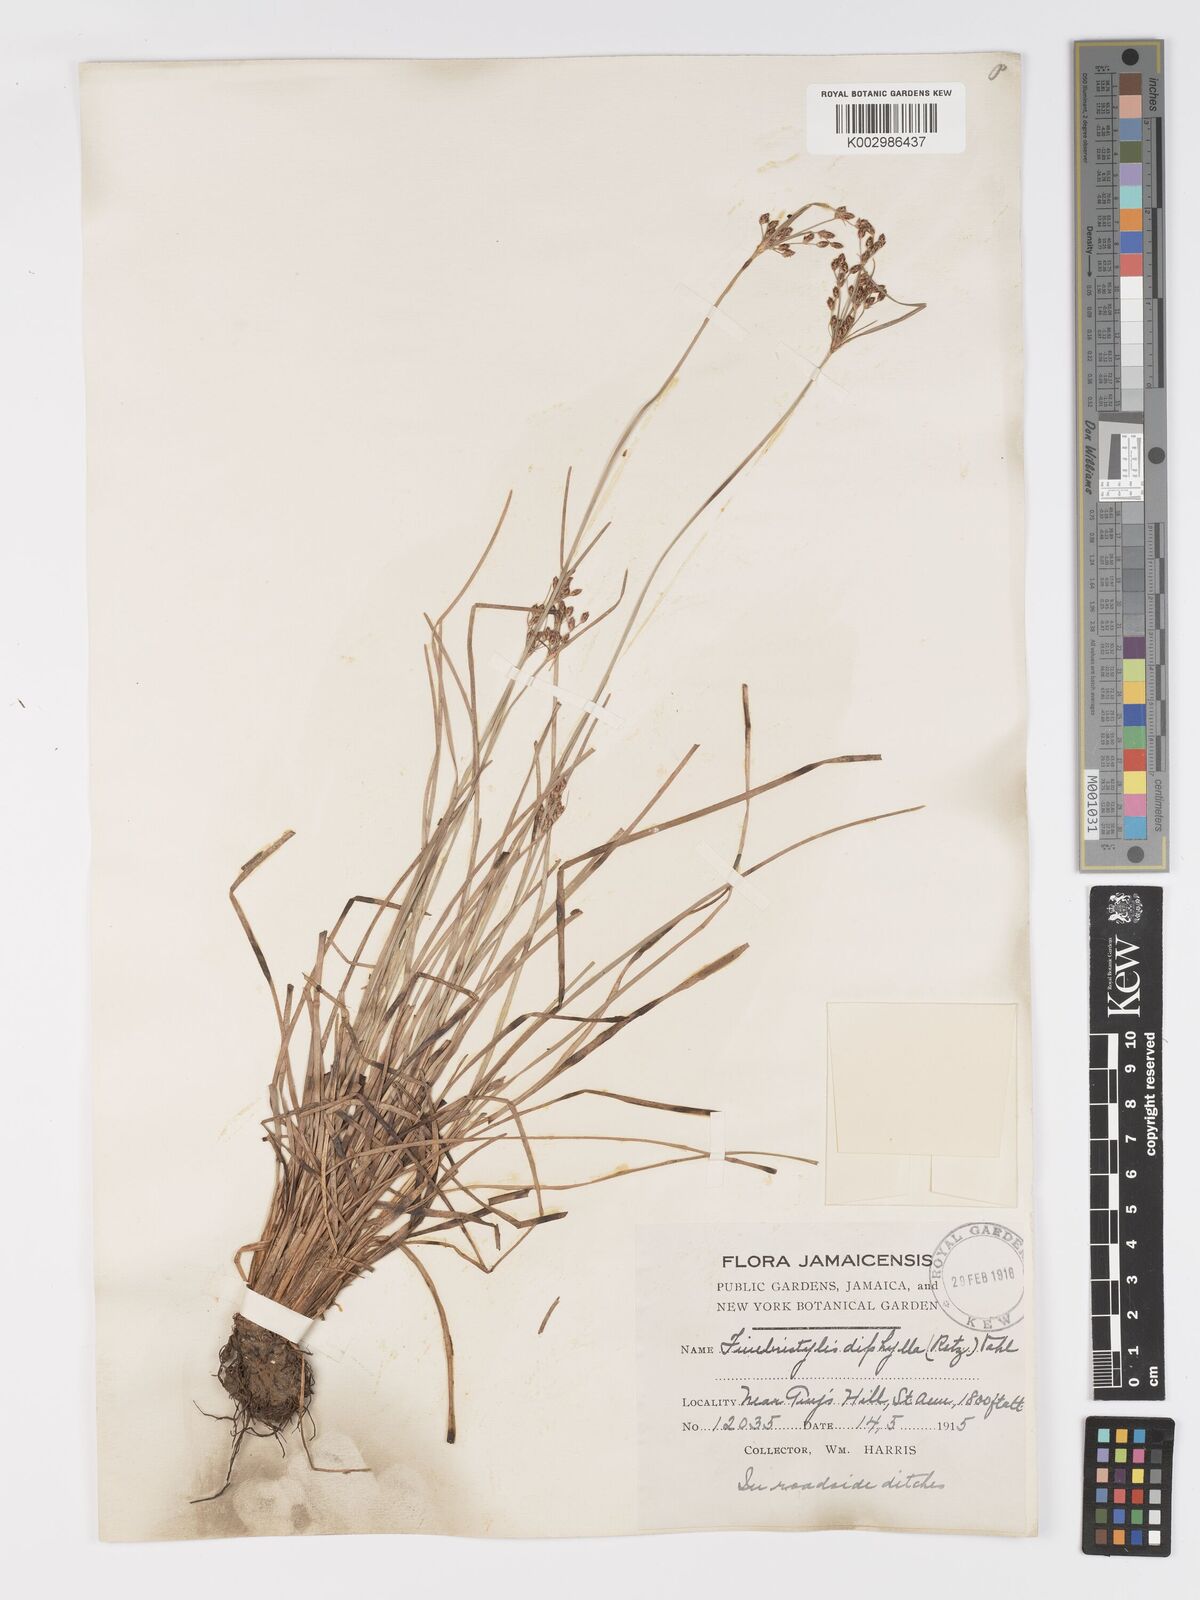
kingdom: Plantae
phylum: Tracheophyta
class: Liliopsida
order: Poales
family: Cyperaceae
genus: Fimbristylis
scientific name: Fimbristylis dichotoma
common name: Forked fimbry
